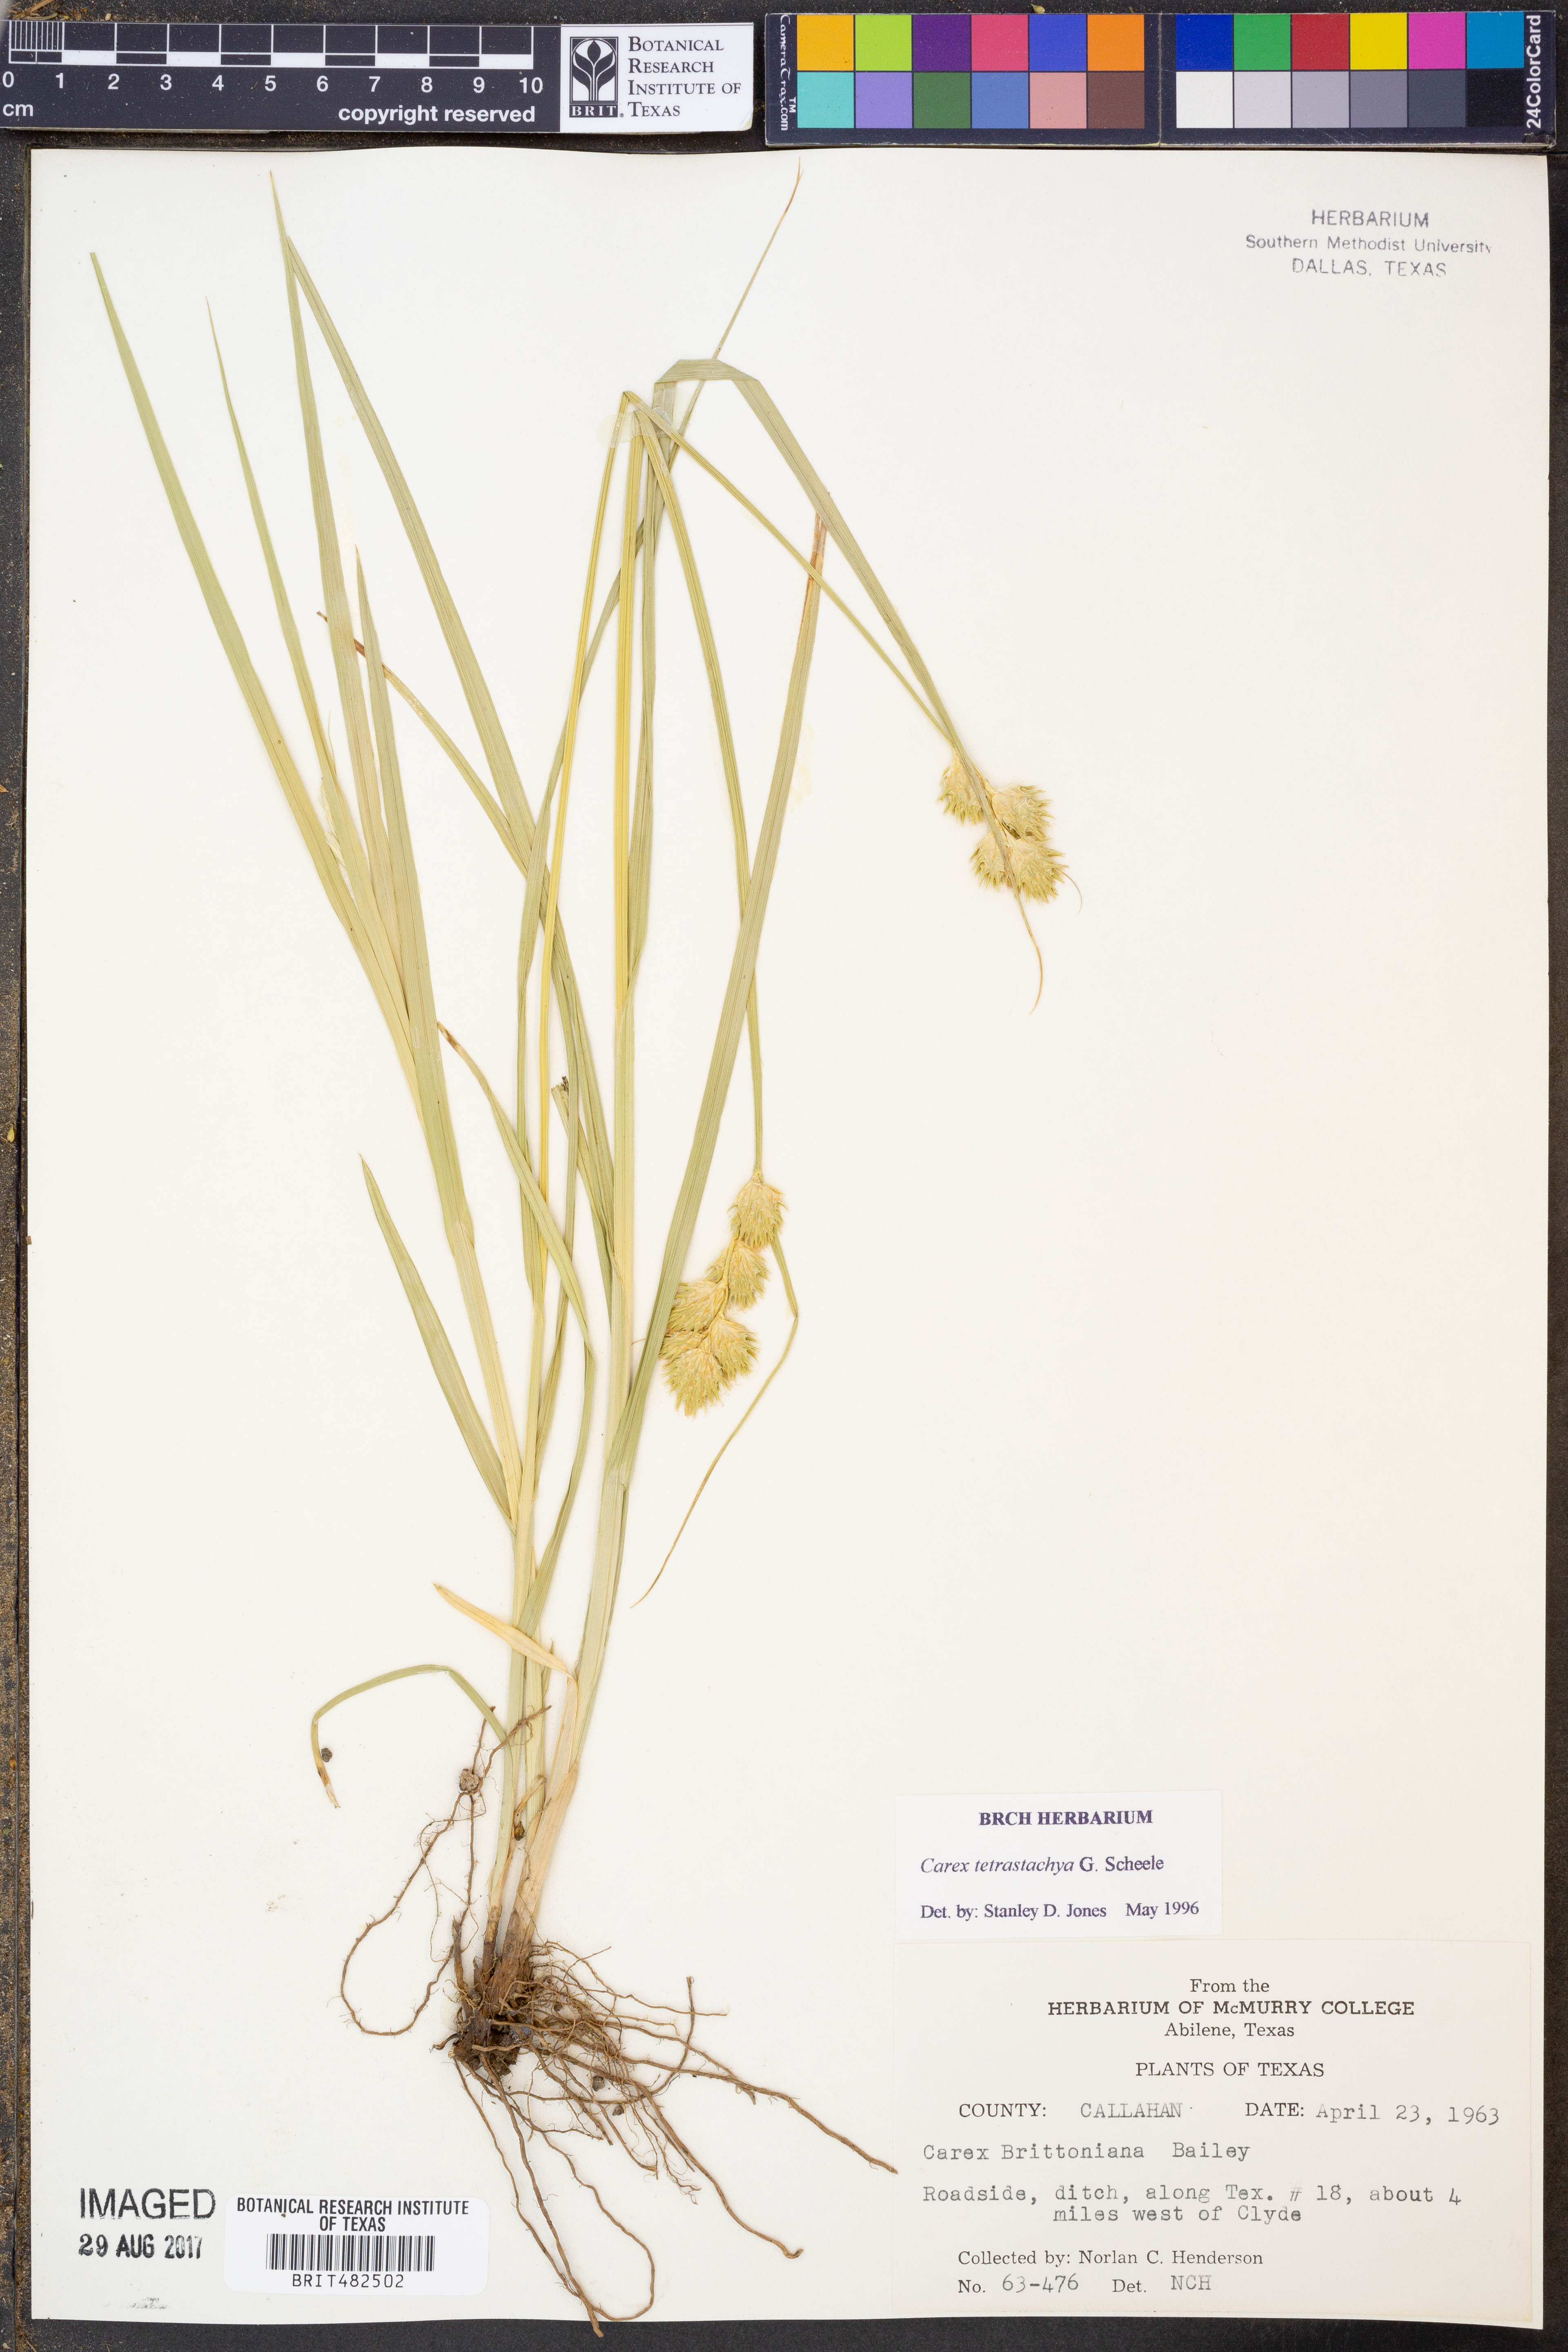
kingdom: Plantae
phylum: Tracheophyta
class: Liliopsida
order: Poales
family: Cyperaceae
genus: Carex
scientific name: Carex tetrastachya
